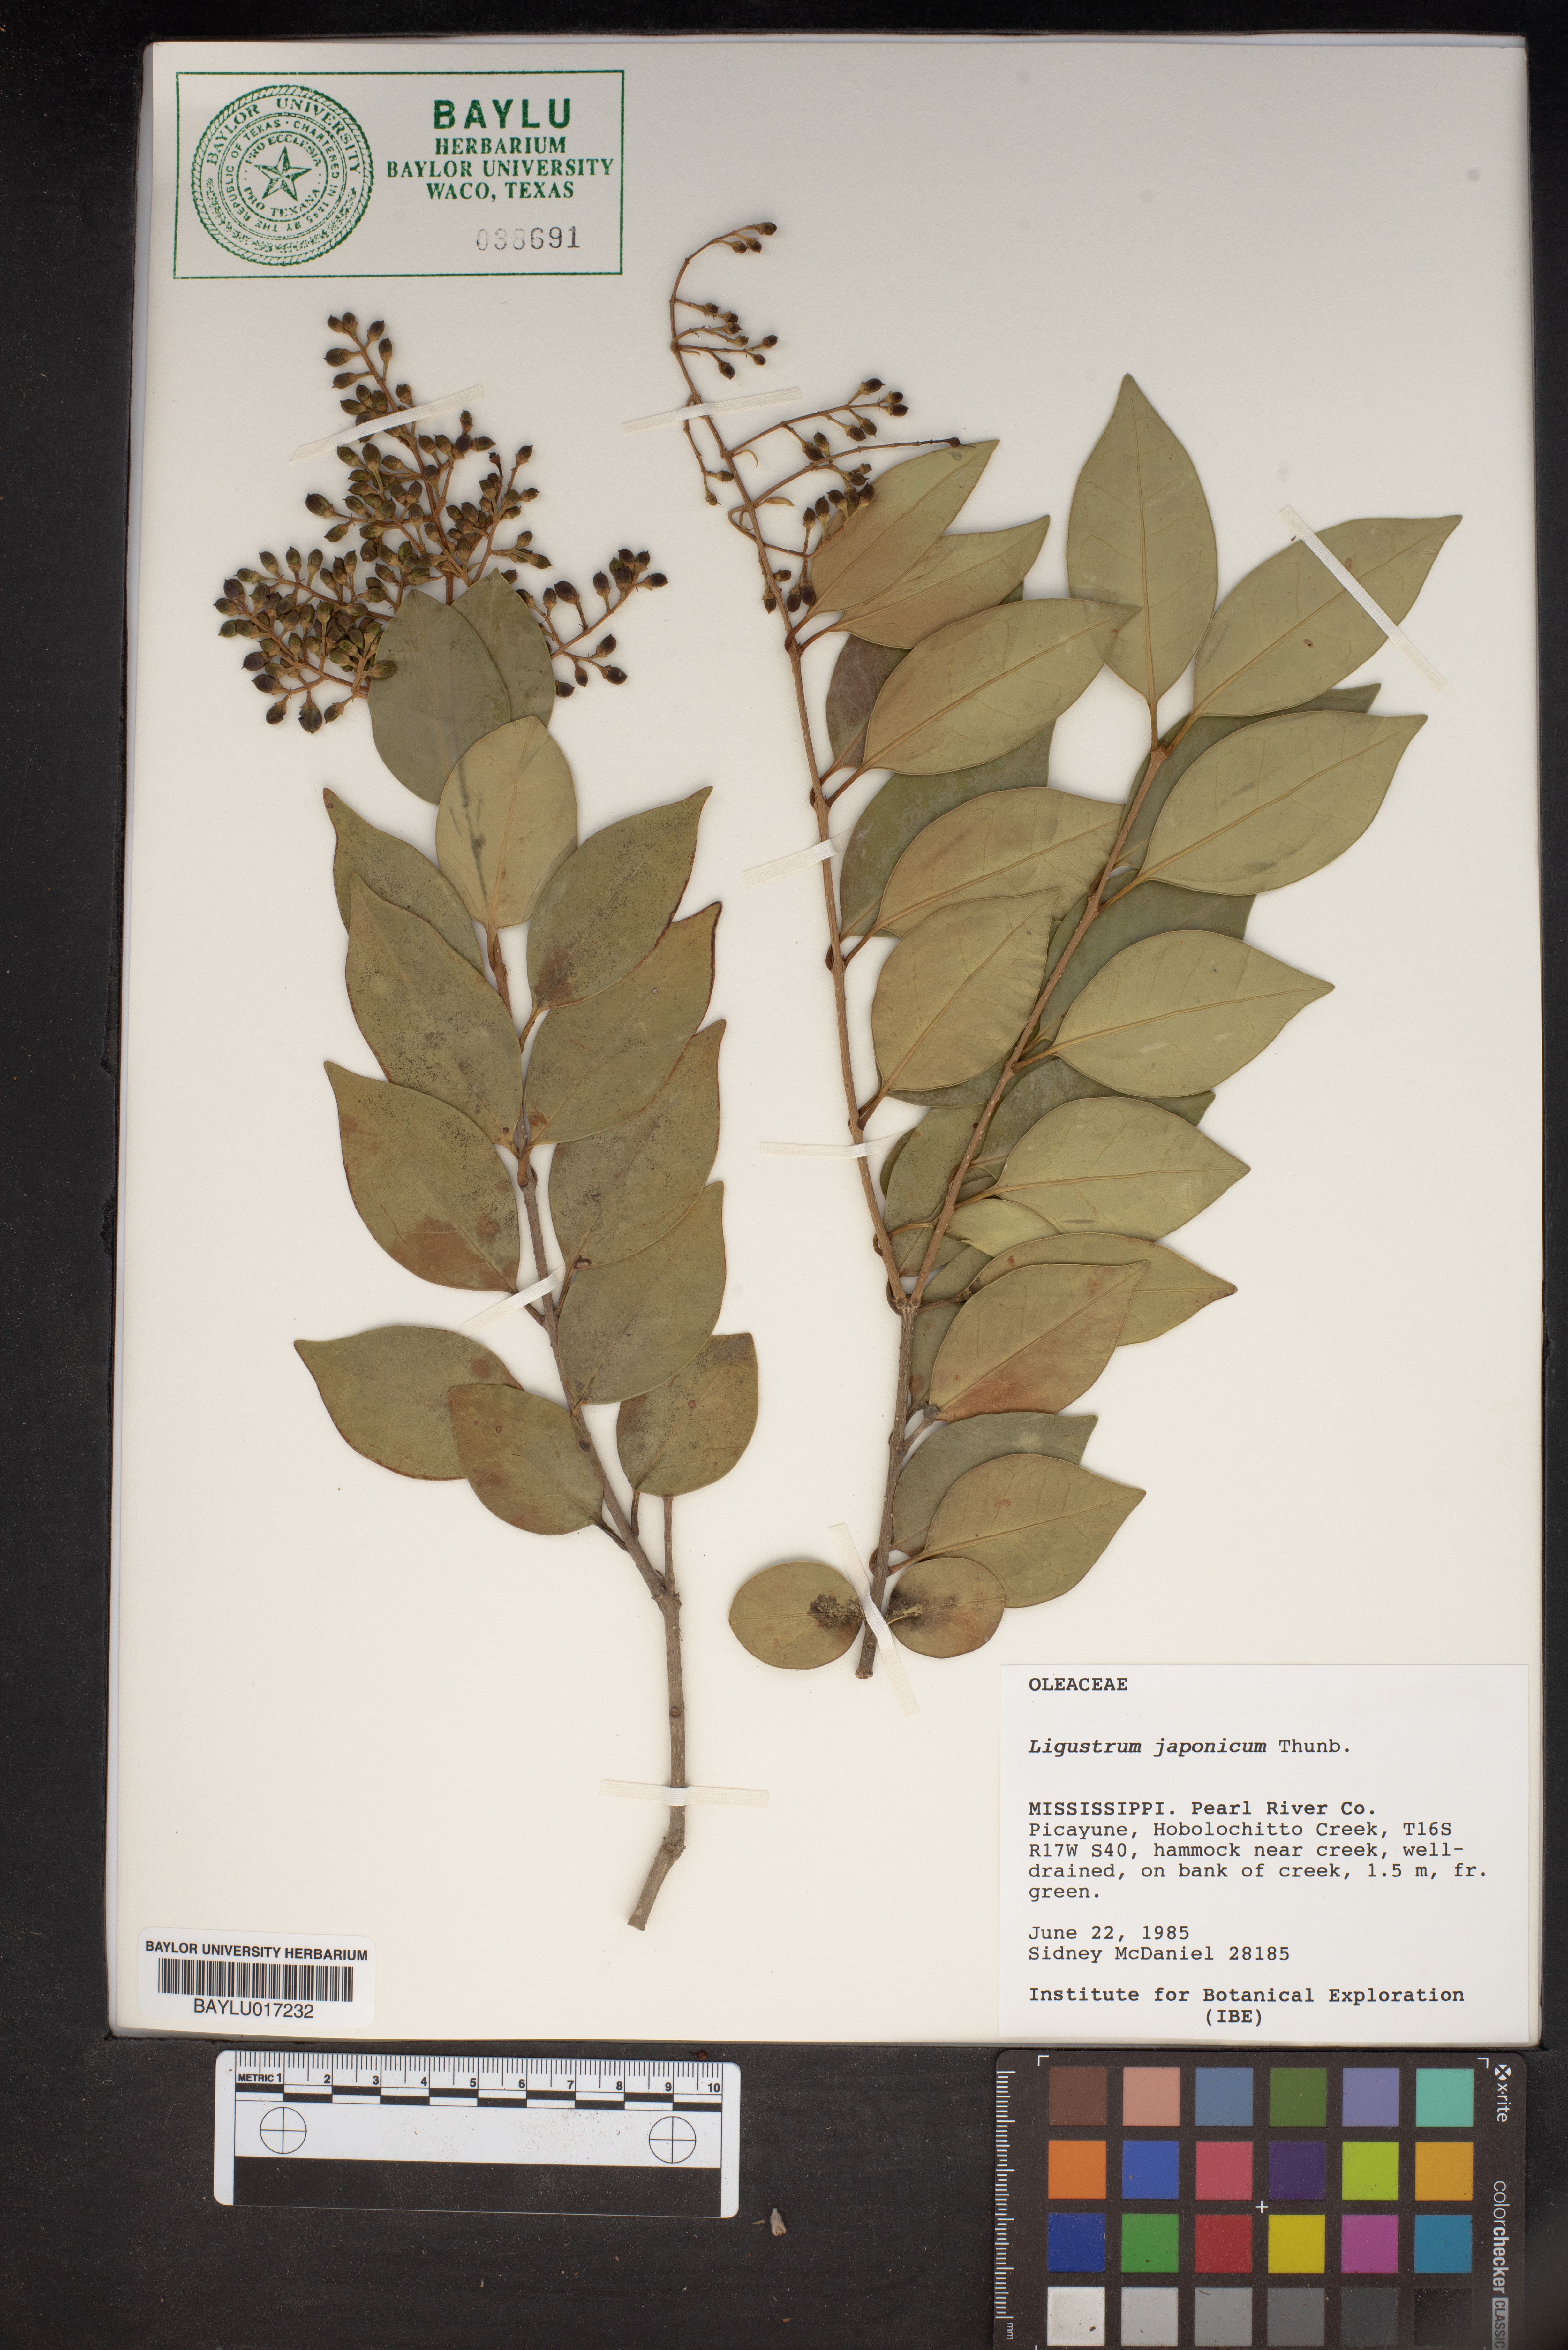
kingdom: Plantae
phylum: Tracheophyta
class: Magnoliopsida
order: Lamiales
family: Oleaceae
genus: Ligustrum
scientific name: Ligustrum japonicum
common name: Japanese privet
